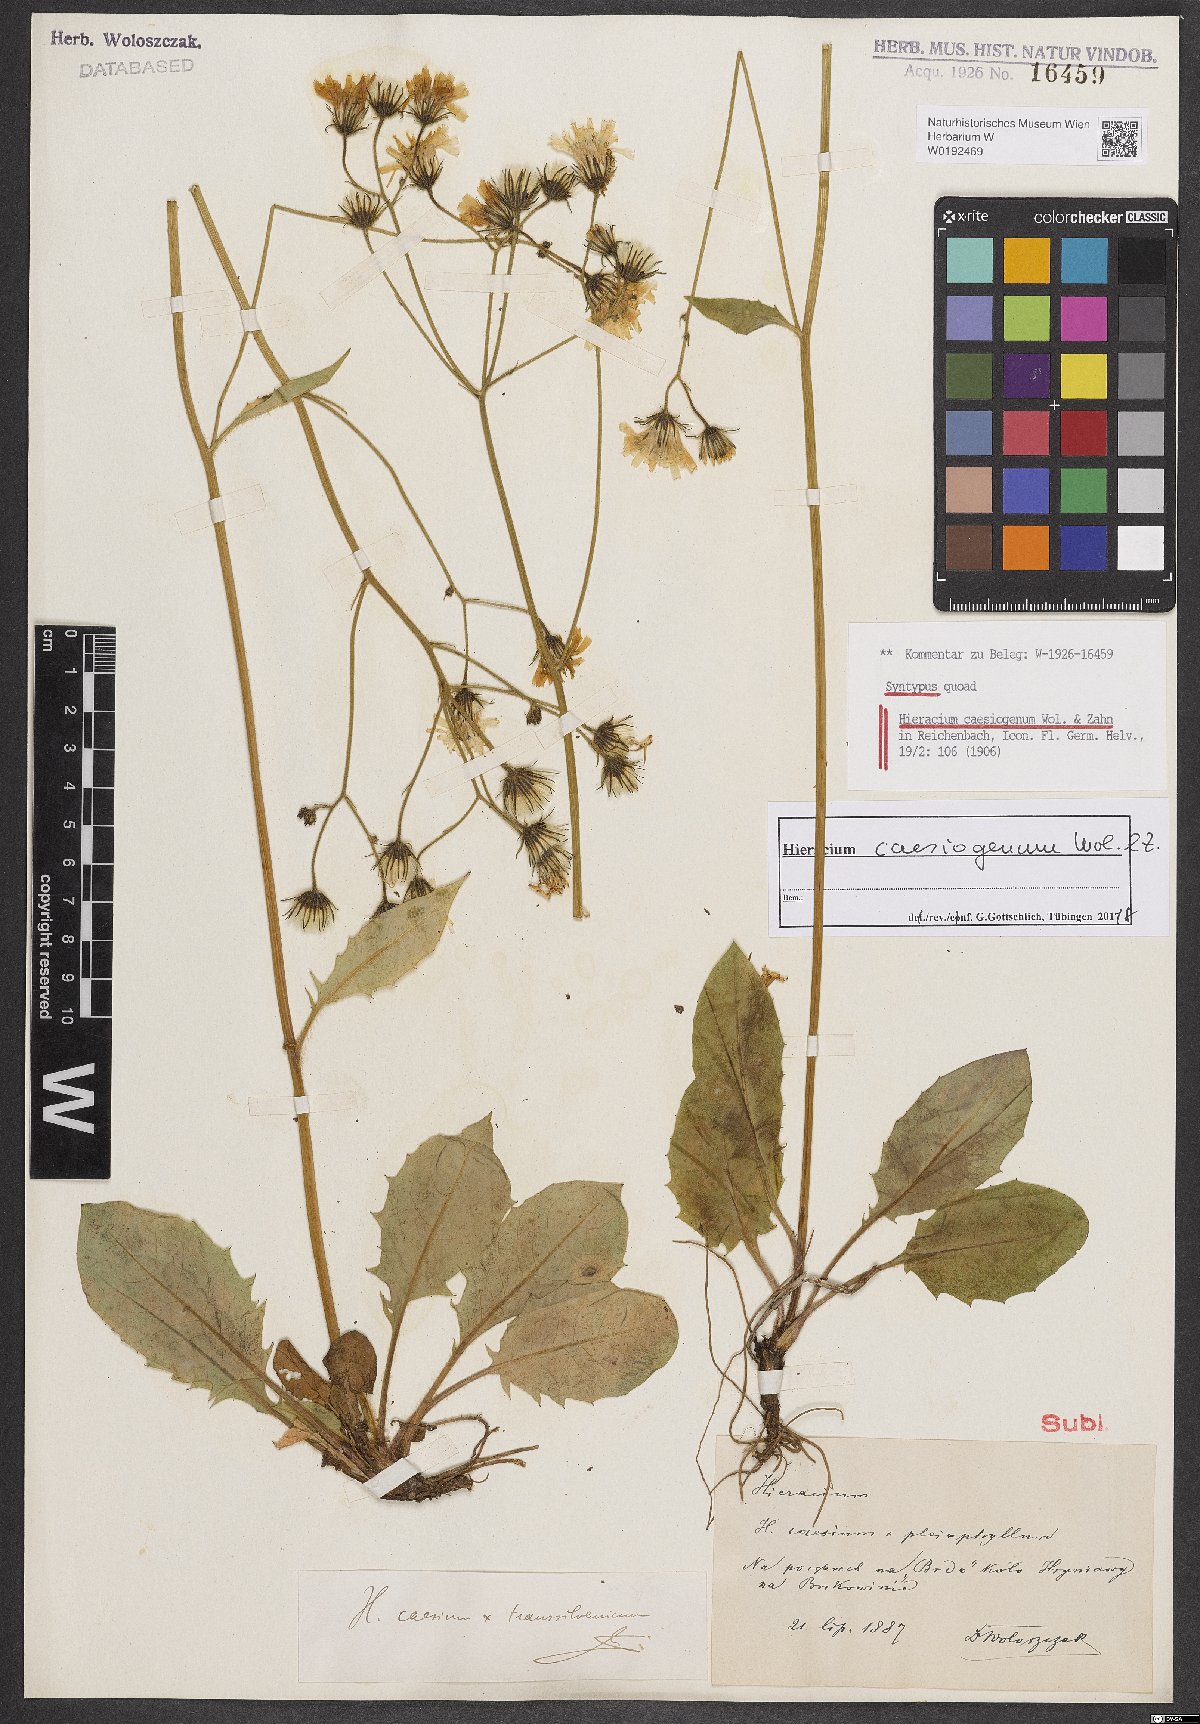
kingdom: Plantae
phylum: Tracheophyta
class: Magnoliopsida
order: Asterales
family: Asteraceae
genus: Hieracium
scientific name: Hieracium caesiogenum
